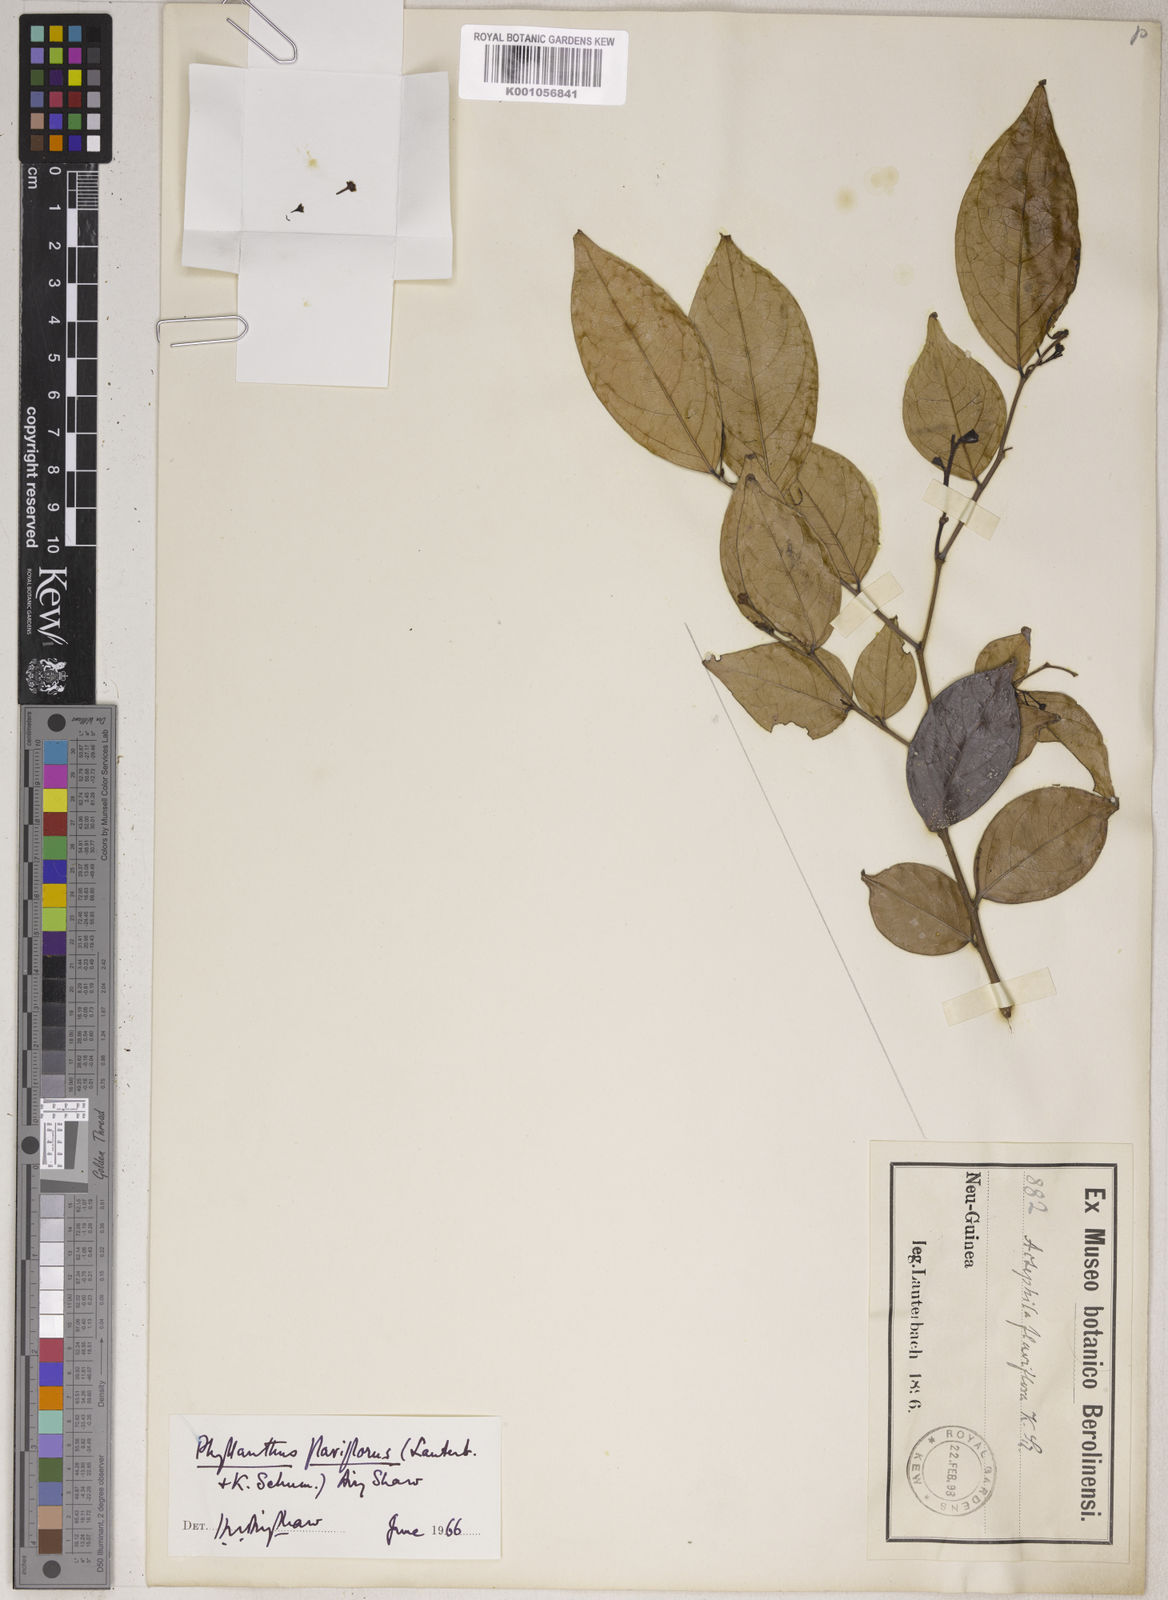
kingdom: Plantae
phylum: Tracheophyta
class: Magnoliopsida
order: Malpighiales
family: Phyllanthaceae
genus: Phyllanthus
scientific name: Phyllanthus flaviflorus
